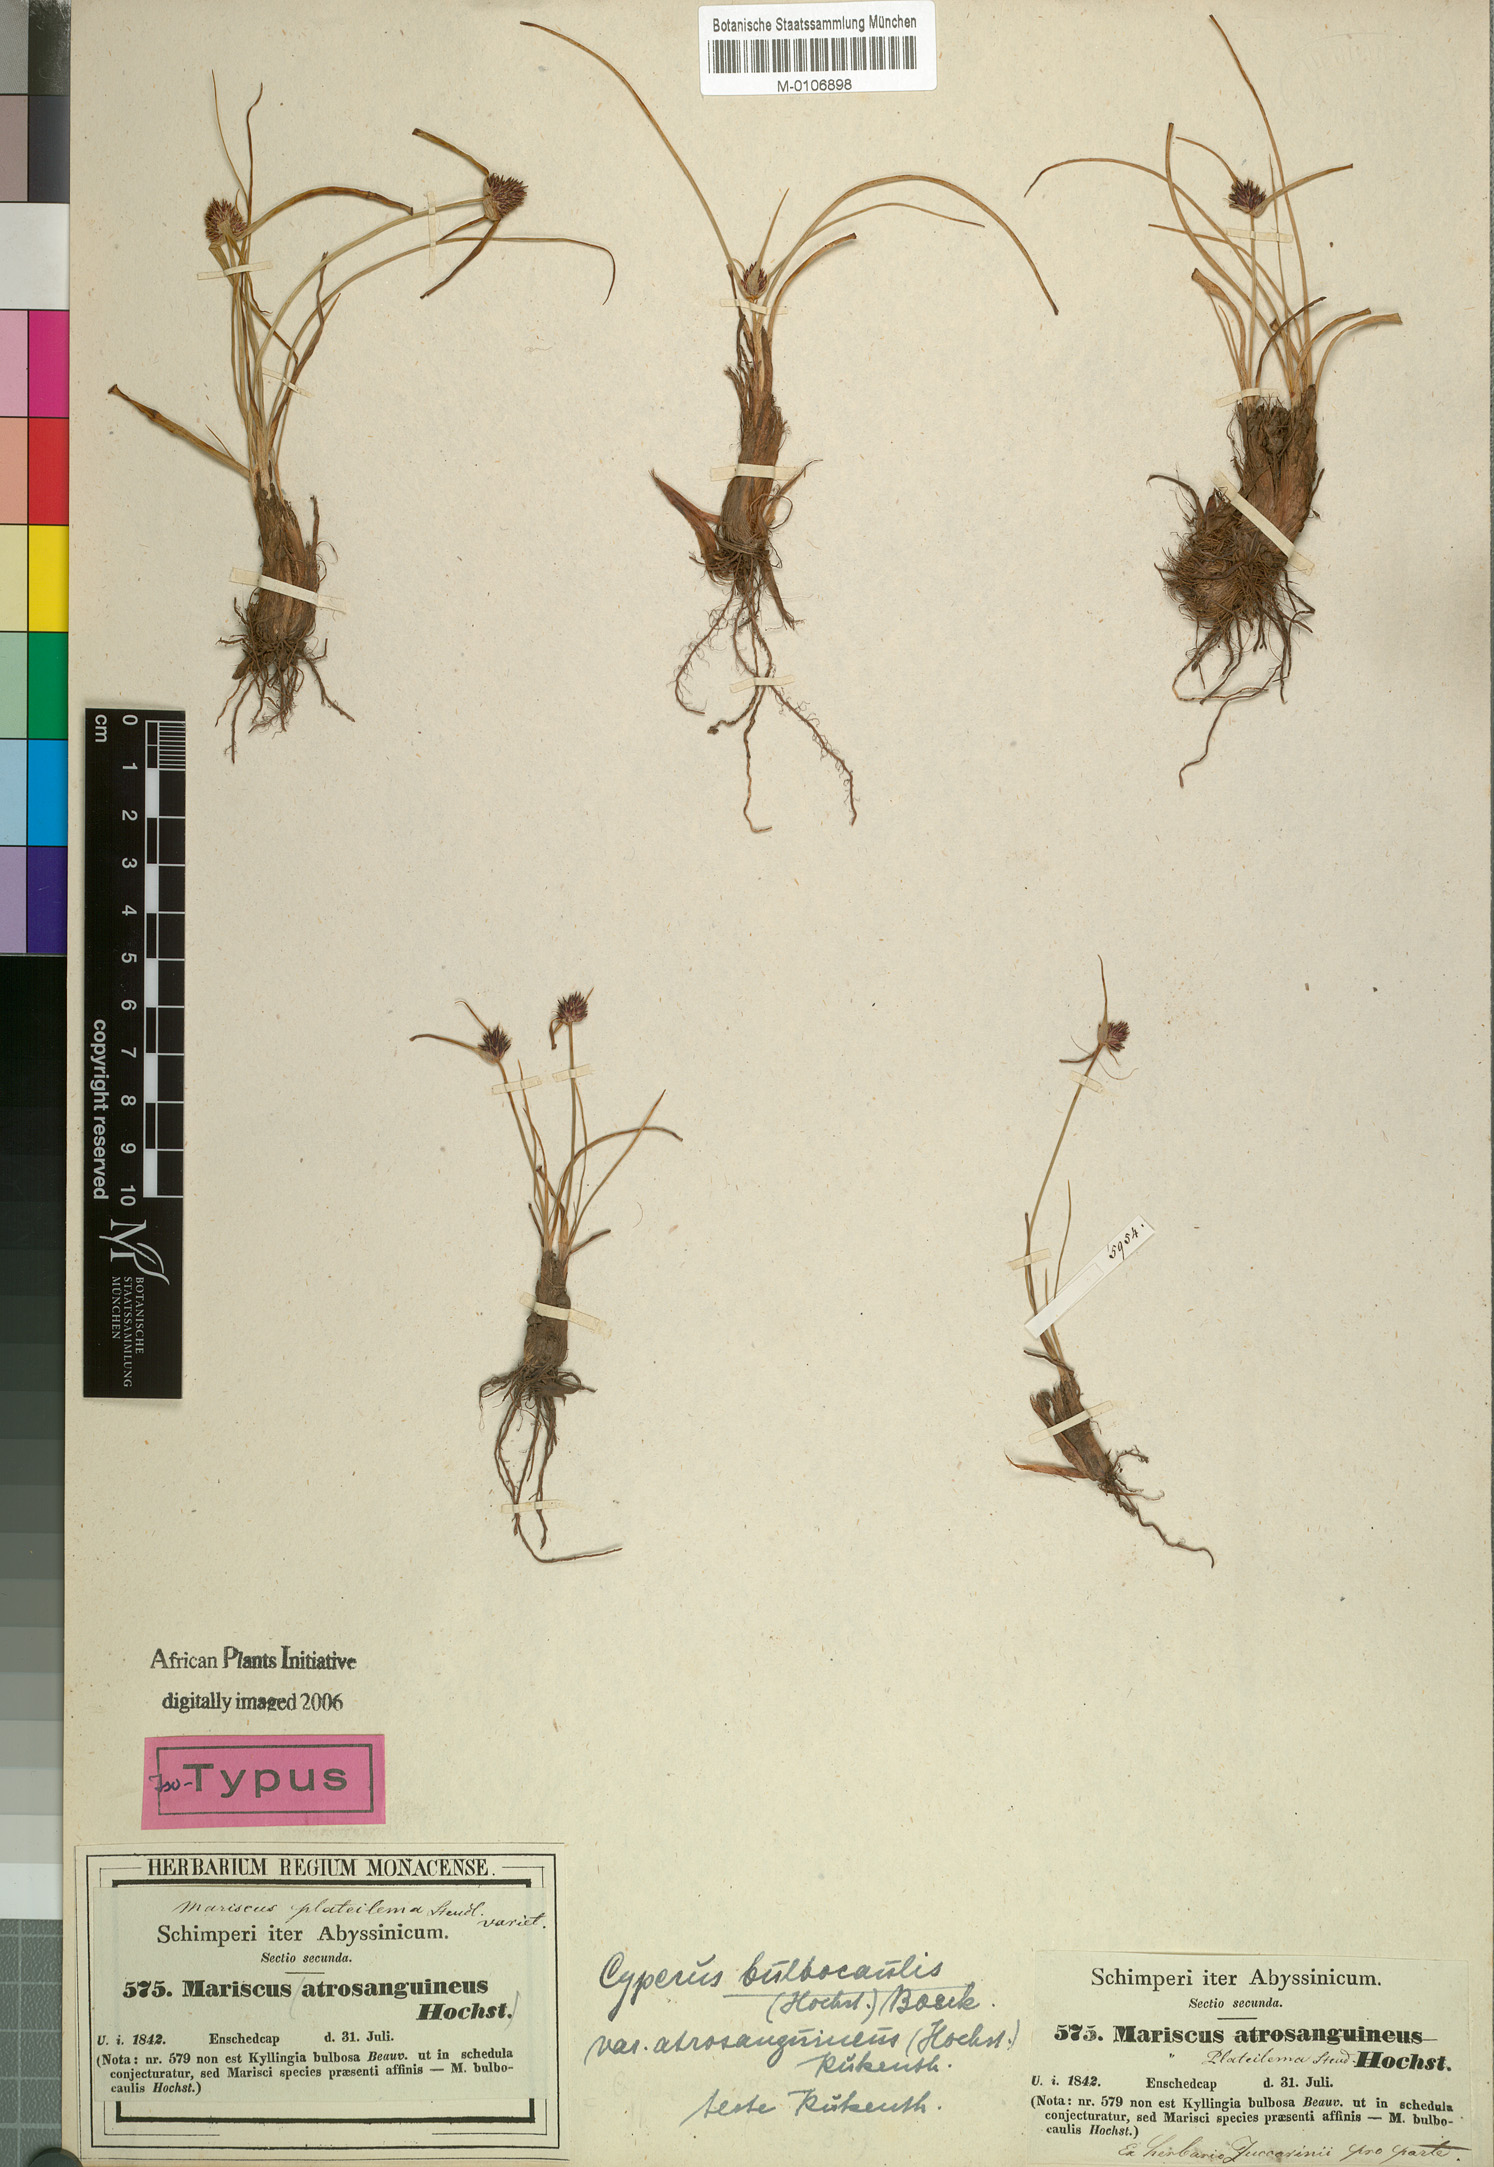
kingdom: Plantae
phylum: Tracheophyta
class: Liliopsida
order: Poales
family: Cyperaceae
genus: Cyperus
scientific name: Cyperus plateilema
